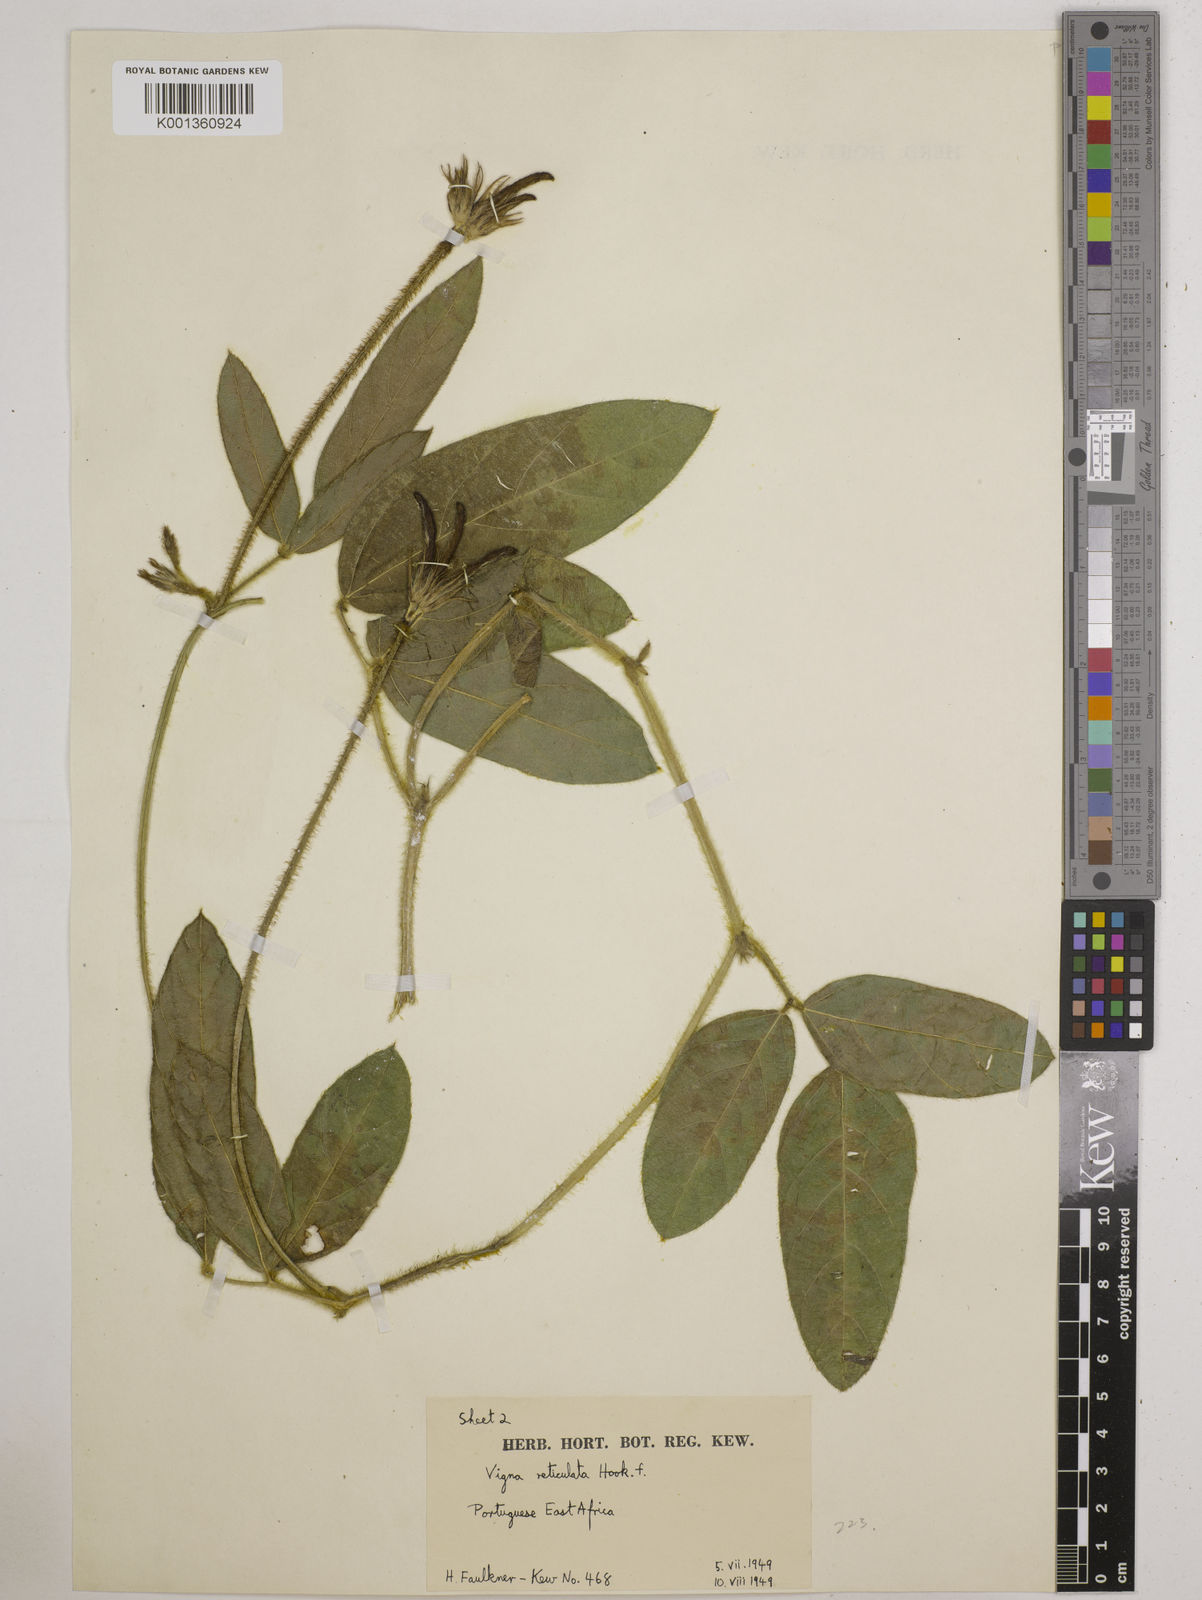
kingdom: Plantae
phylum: Tracheophyta
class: Magnoliopsida
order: Fabales
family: Fabaceae
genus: Vigna
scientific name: Vigna reticulata
